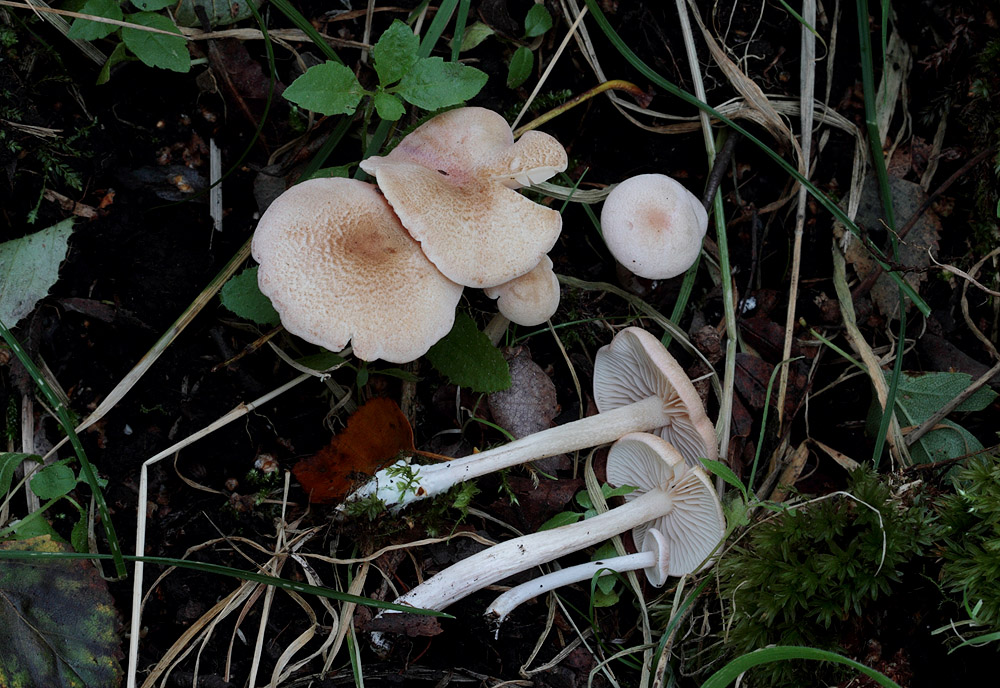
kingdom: Fungi
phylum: Basidiomycota
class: Agaricomycetes
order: Agaricales
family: Entolomataceae
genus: Entoloma
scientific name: Entoloma queletii
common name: rosalilla rødblad
